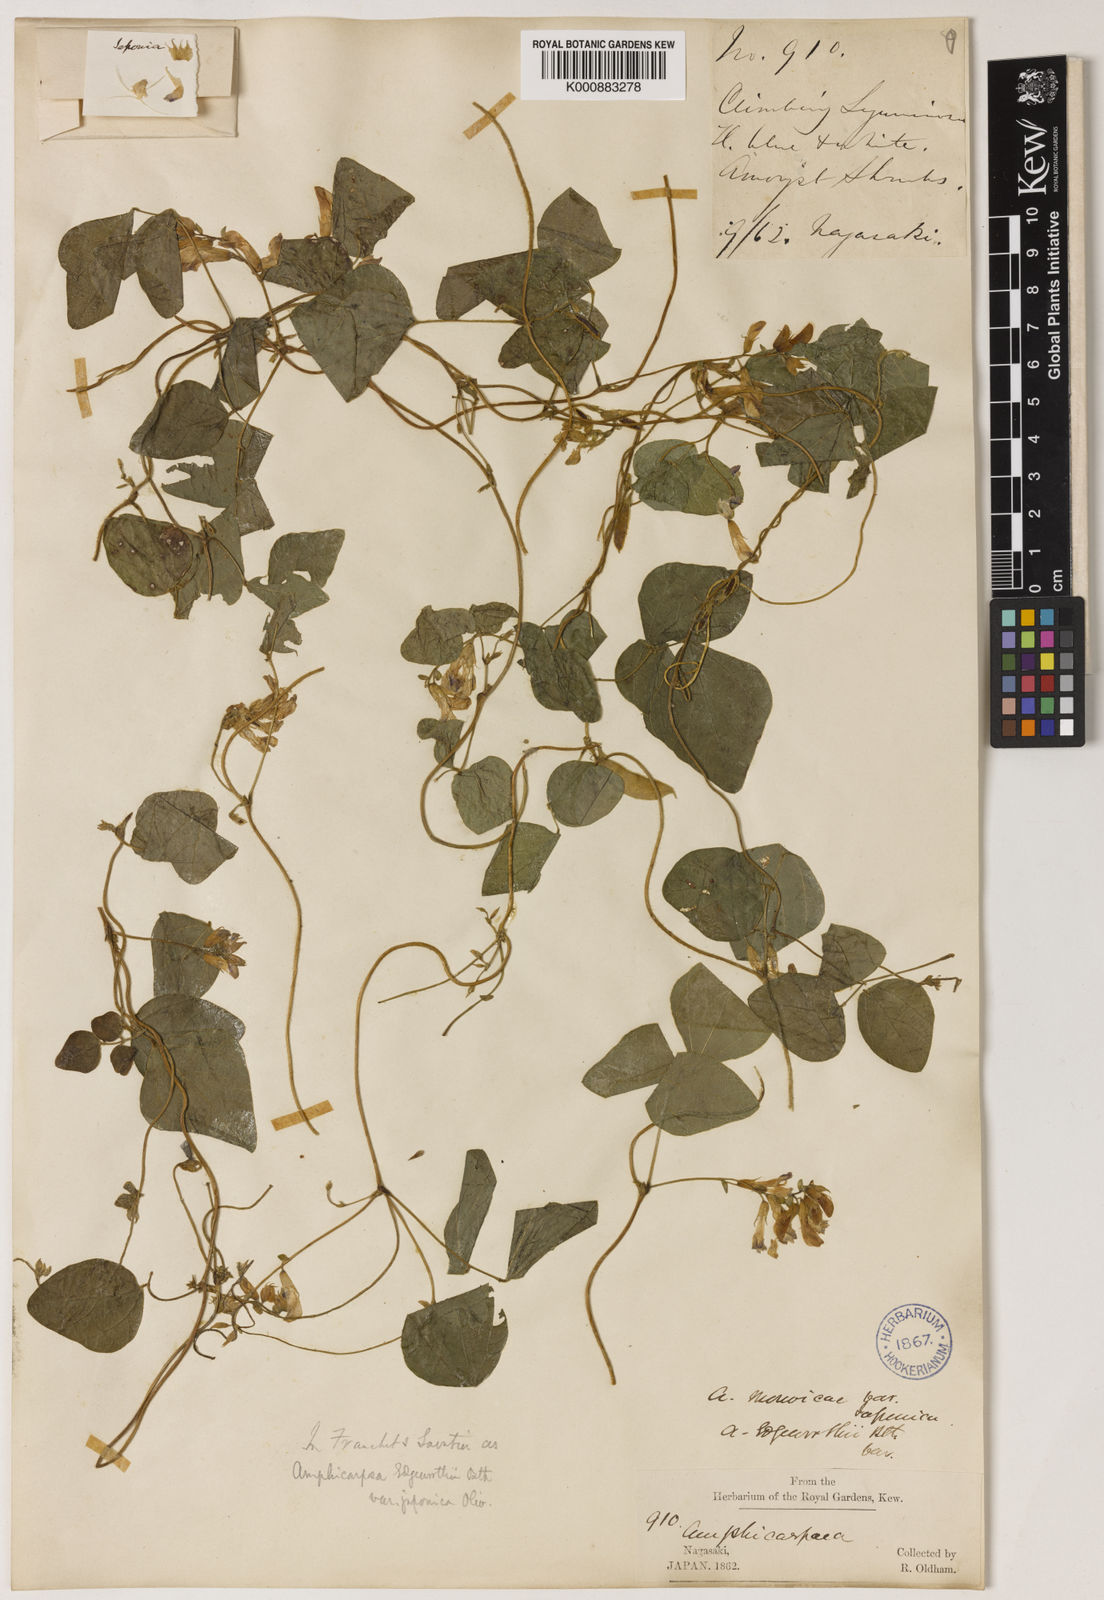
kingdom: Plantae
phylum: Tracheophyta
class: Magnoliopsida
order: Fabales
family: Fabaceae
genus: Amphicarpaea
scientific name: Amphicarpaea edgeworthii
